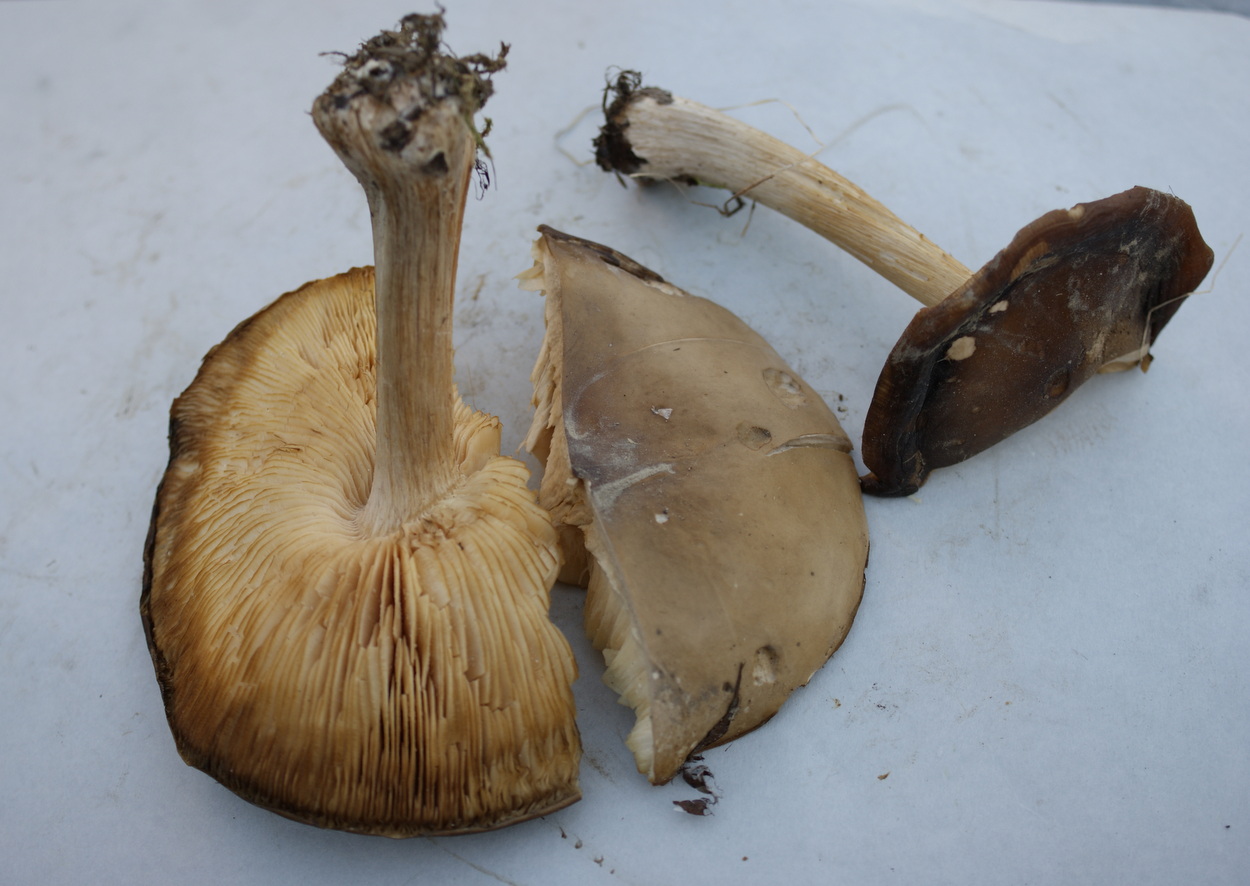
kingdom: Fungi
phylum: Basidiomycota
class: Agaricomycetes
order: Agaricales
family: Tricholomataceae
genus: Melanoleuca
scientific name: Melanoleuca cognata
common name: gyldengrå munkehat
